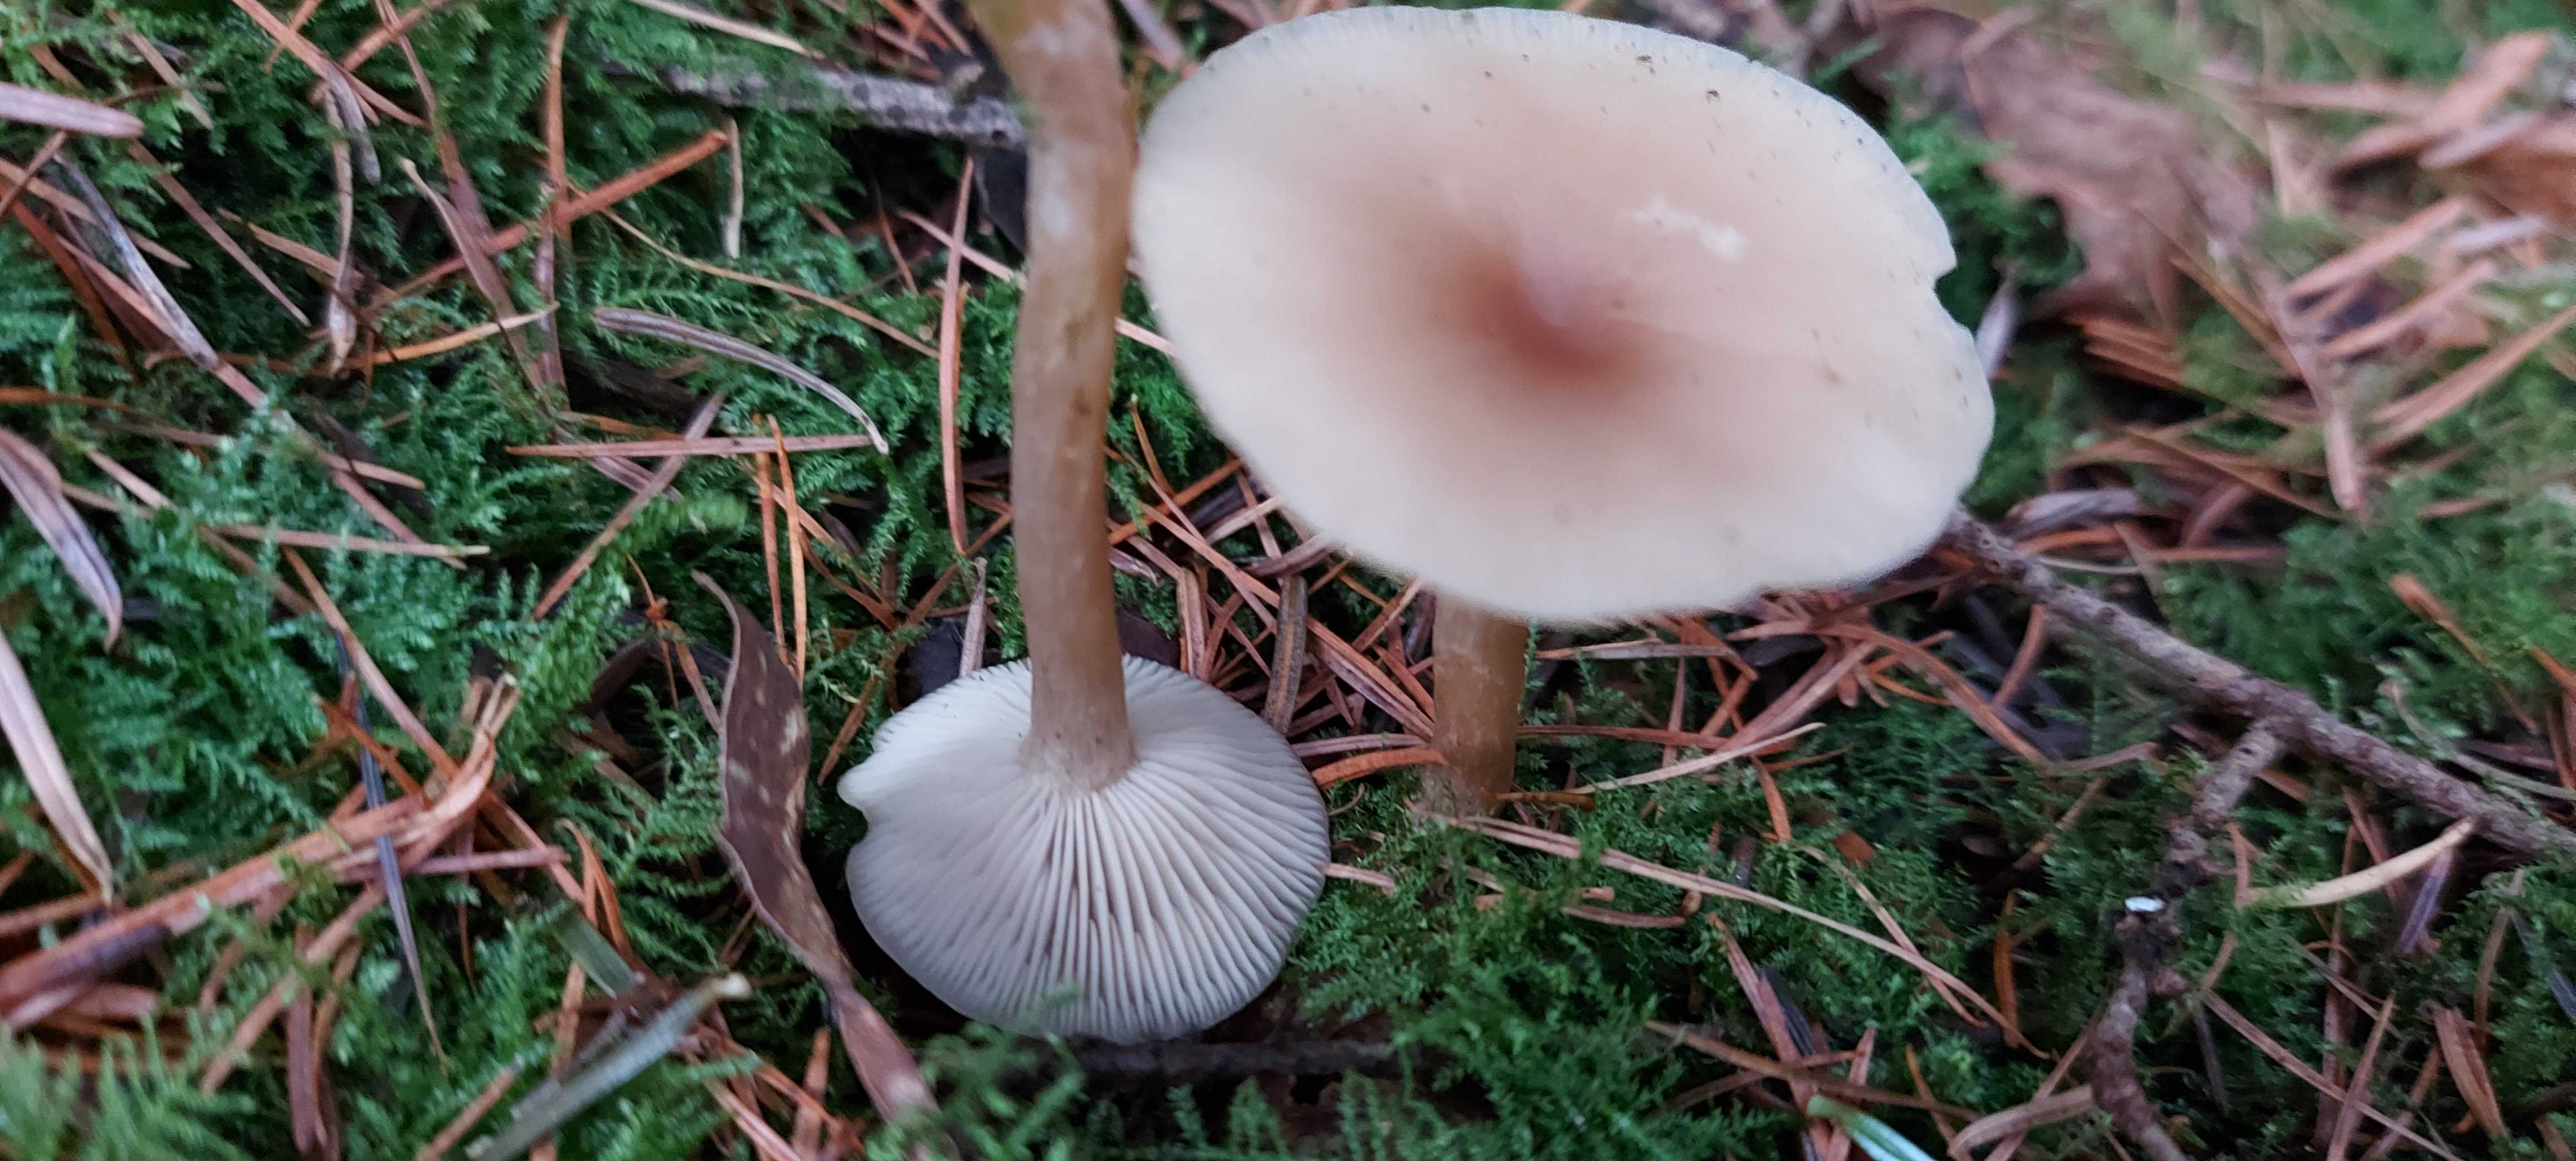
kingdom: Fungi
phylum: Basidiomycota
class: Agaricomycetes
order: Agaricales
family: Tricholomataceae
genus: Clitocybe
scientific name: Clitocybe fragrans
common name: vellugtende tragthat
